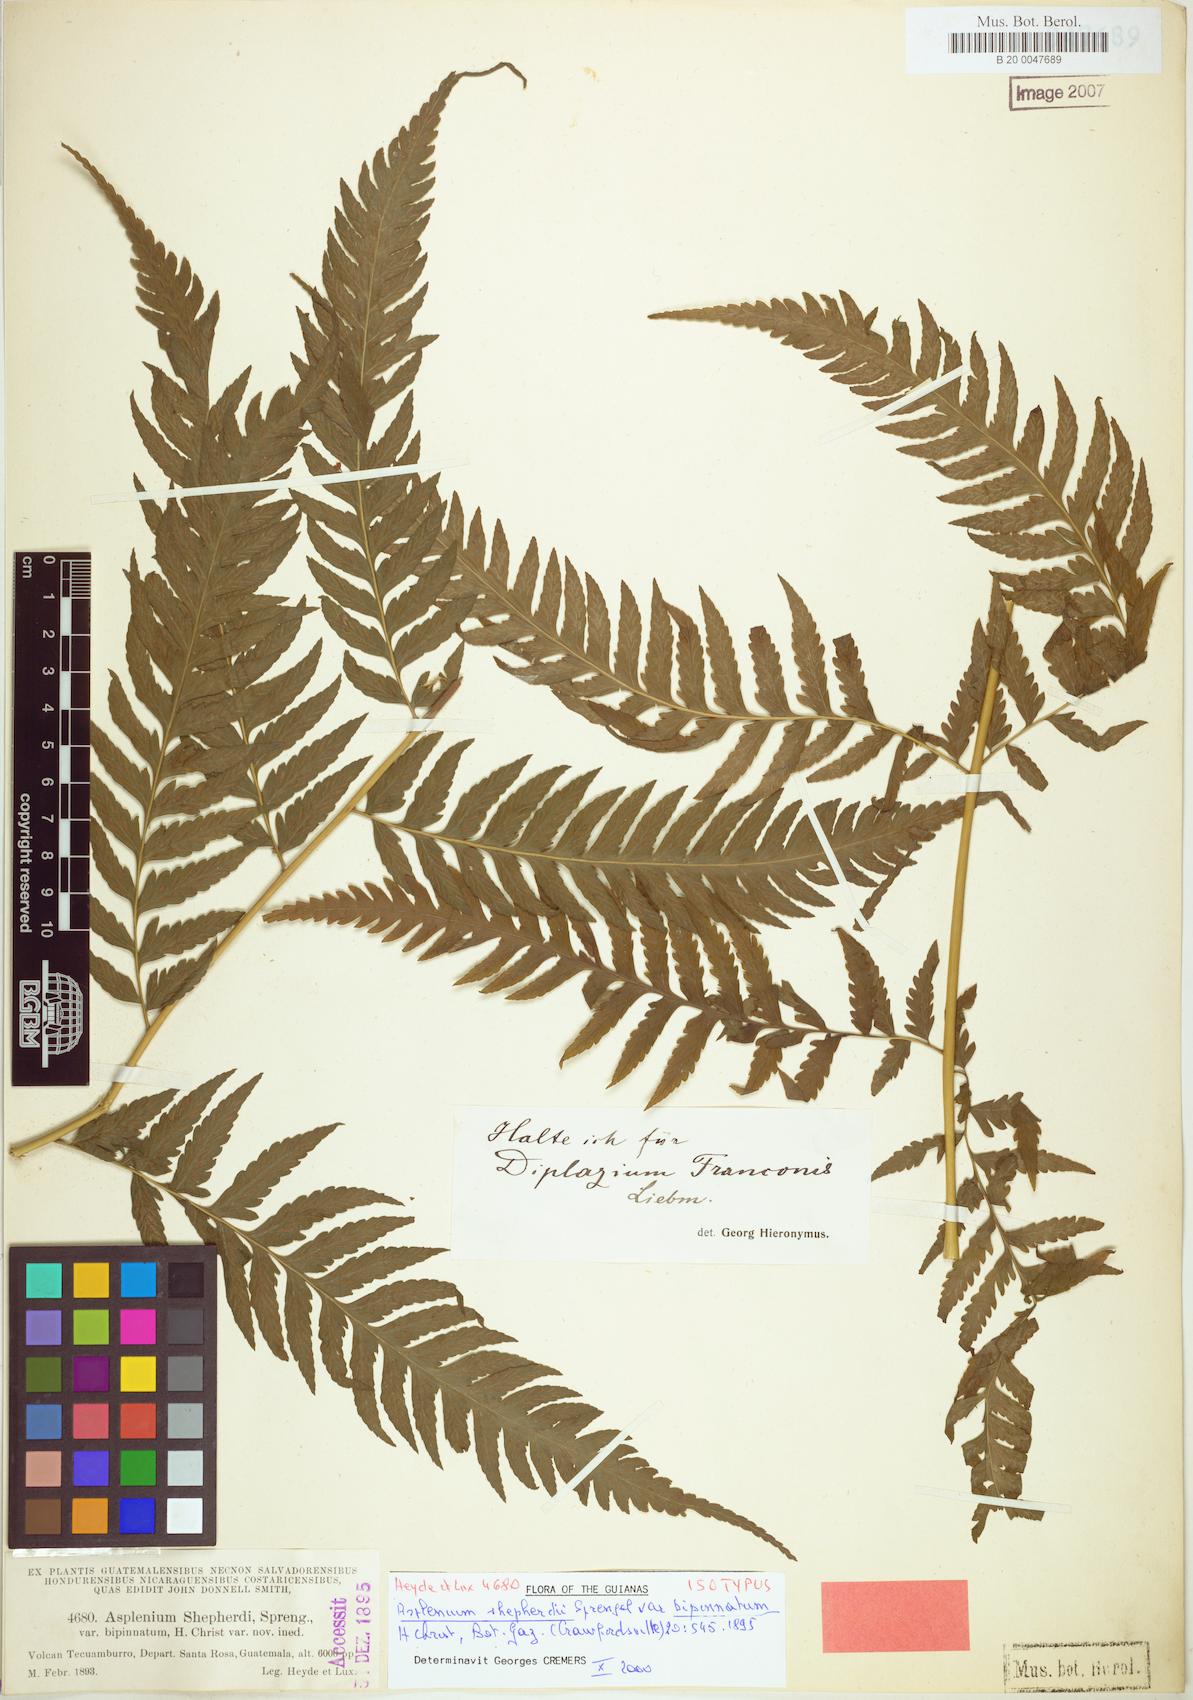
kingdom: Plantae
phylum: Tracheophyta
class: Polypodiopsida
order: Polypodiales
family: Athyriaceae
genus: Diplazium
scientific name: Diplazium franconis
